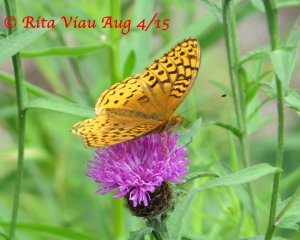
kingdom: Animalia
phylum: Arthropoda
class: Insecta
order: Lepidoptera
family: Nymphalidae
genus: Speyeria
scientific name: Speyeria cybele
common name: Great Spangled Fritillary
